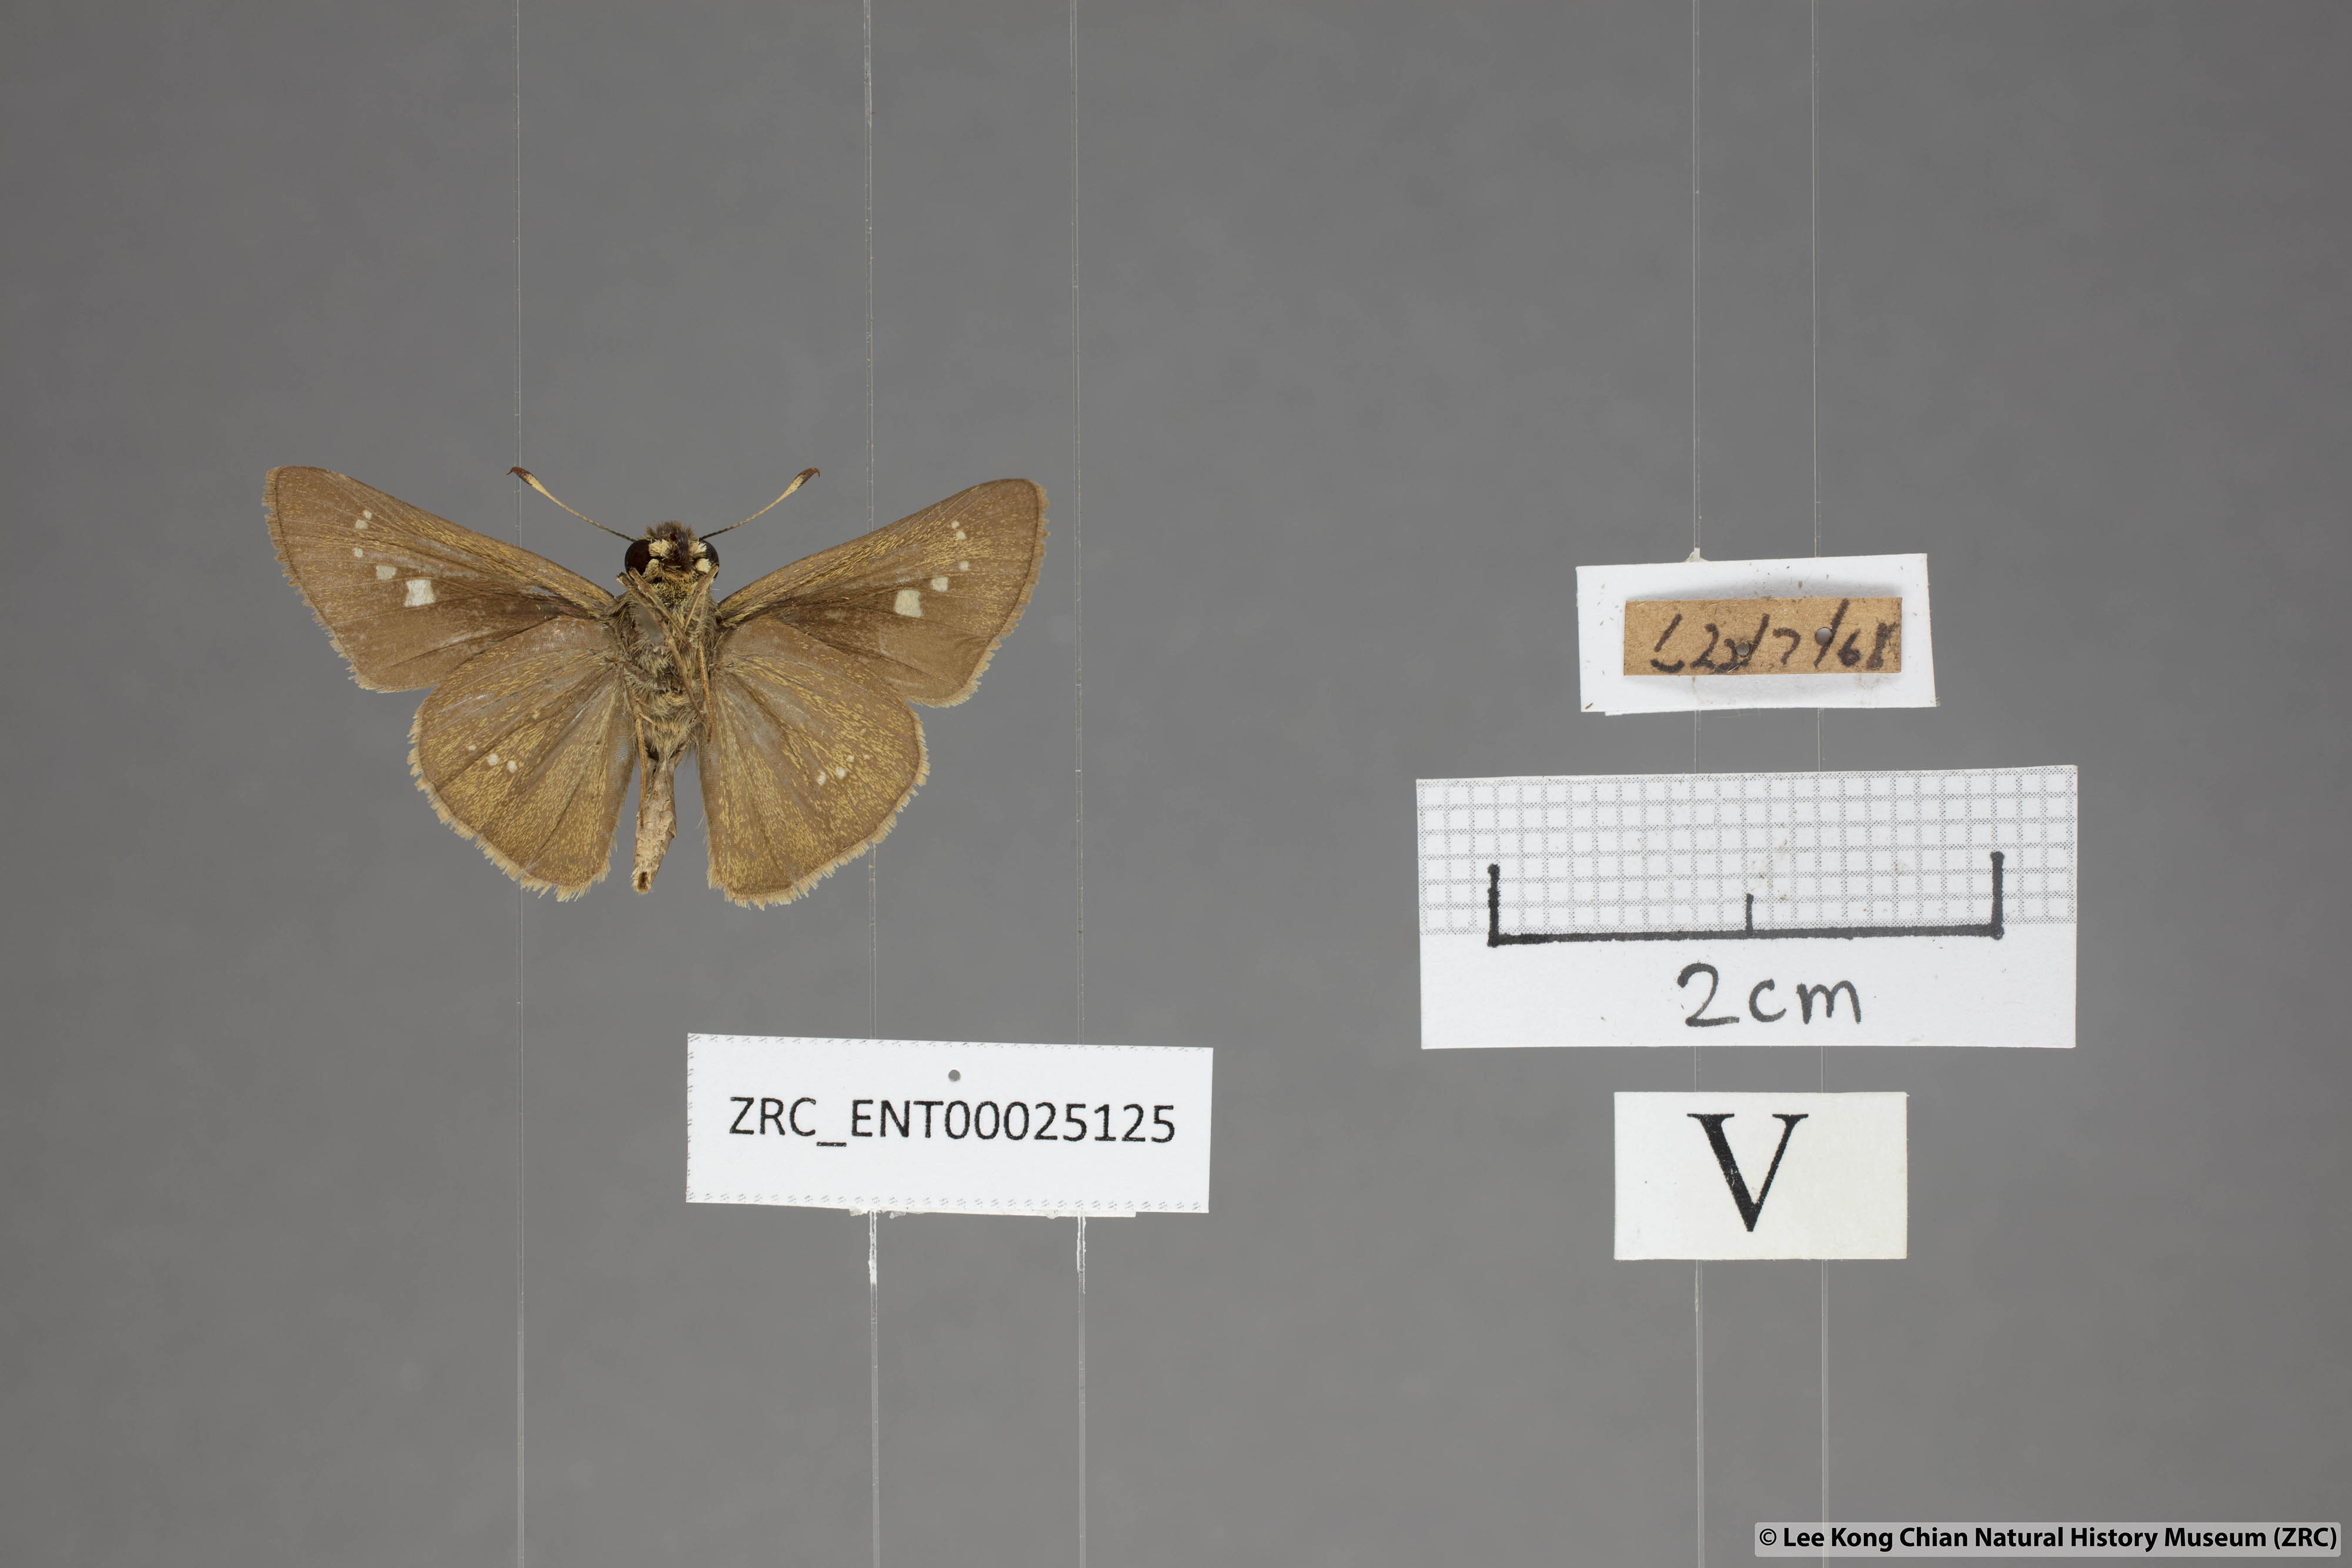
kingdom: Animalia
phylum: Arthropoda
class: Insecta
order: Lepidoptera
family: Hesperiidae
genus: Parnara
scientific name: Parnara naso
